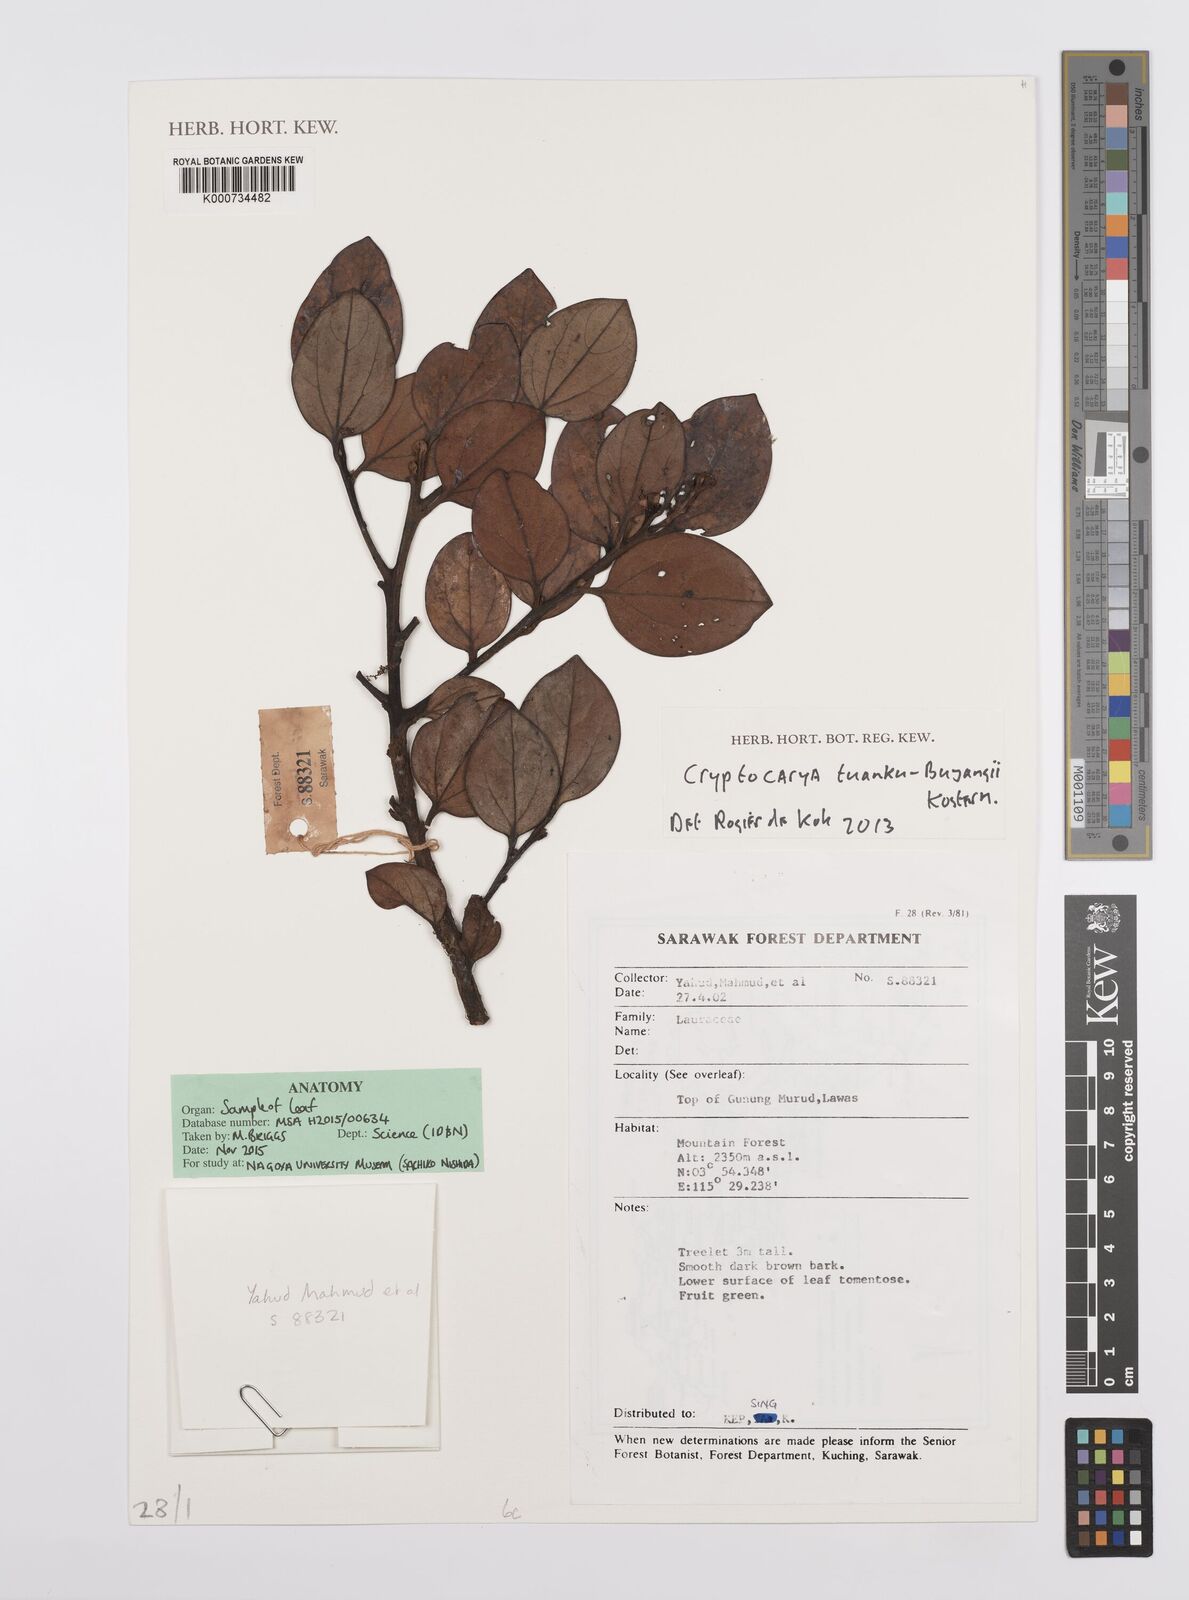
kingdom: Plantae
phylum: Tracheophyta
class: Magnoliopsida
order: Laurales
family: Lauraceae
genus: Cryptocarya
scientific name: Cryptocarya tuanku-bujangii
